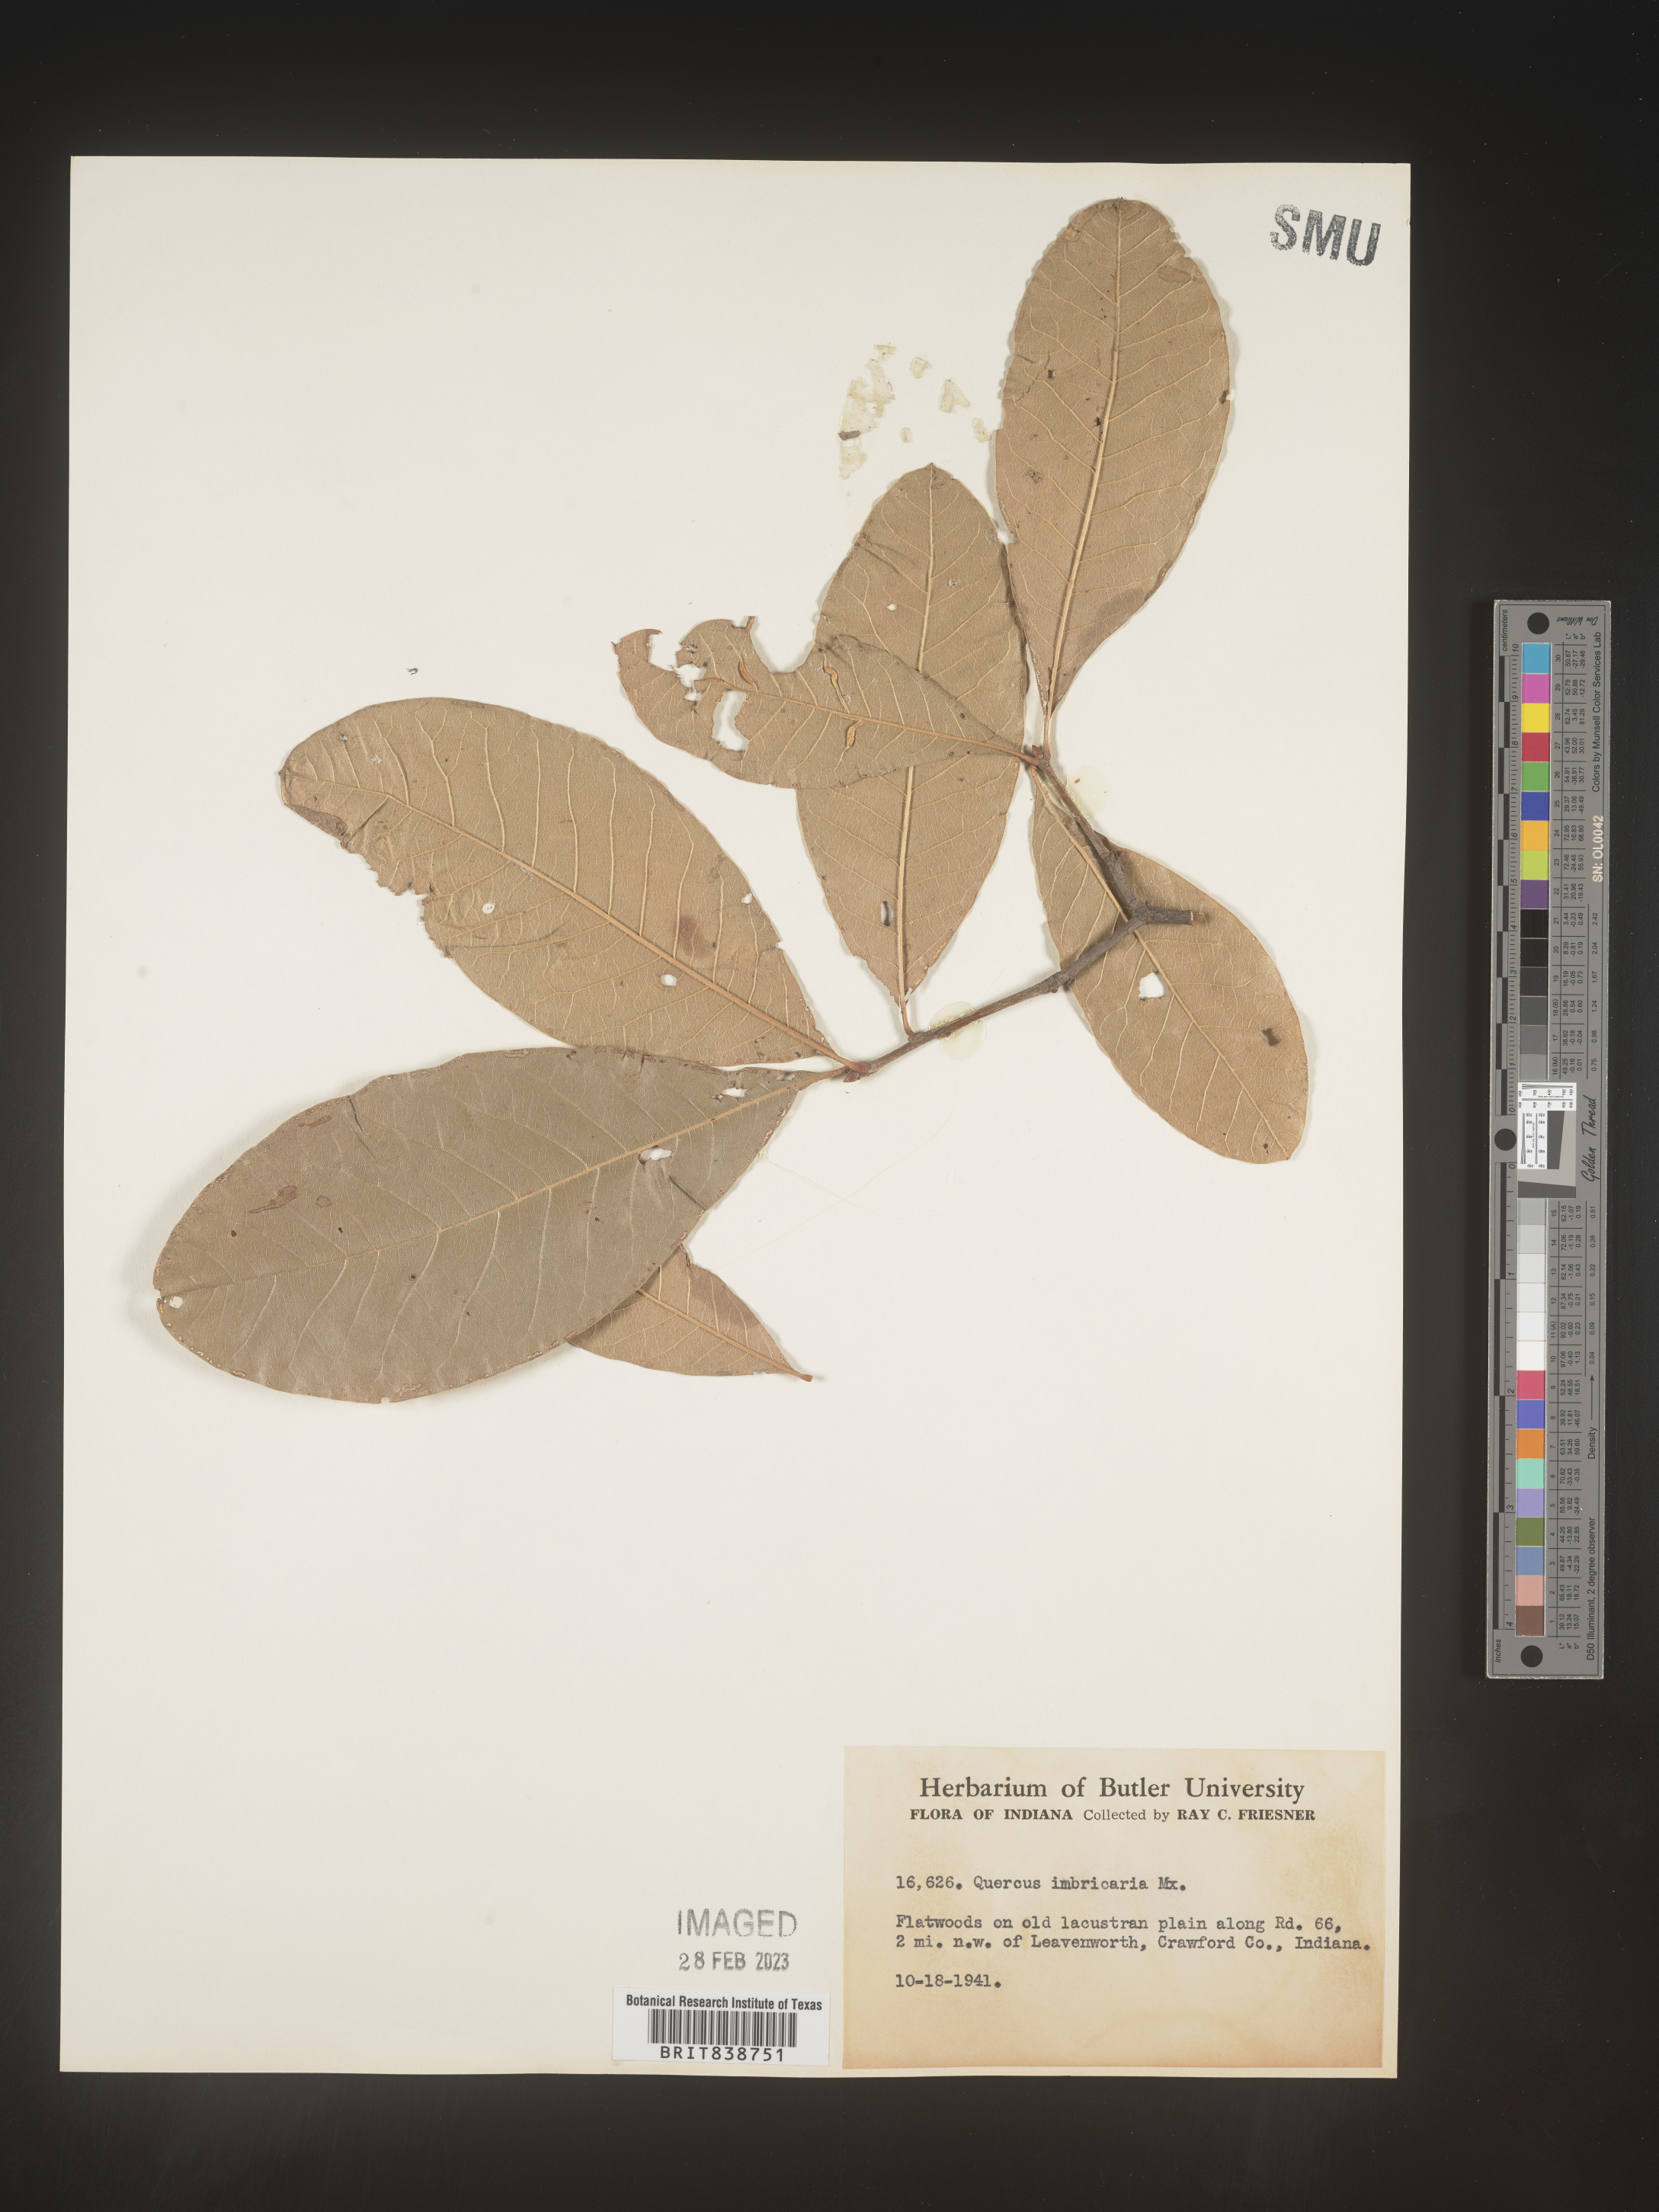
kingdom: Plantae
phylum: Tracheophyta
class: Magnoliopsida
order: Fagales
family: Fagaceae
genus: Quercus
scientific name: Quercus imbricaria
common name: Shingle oak
